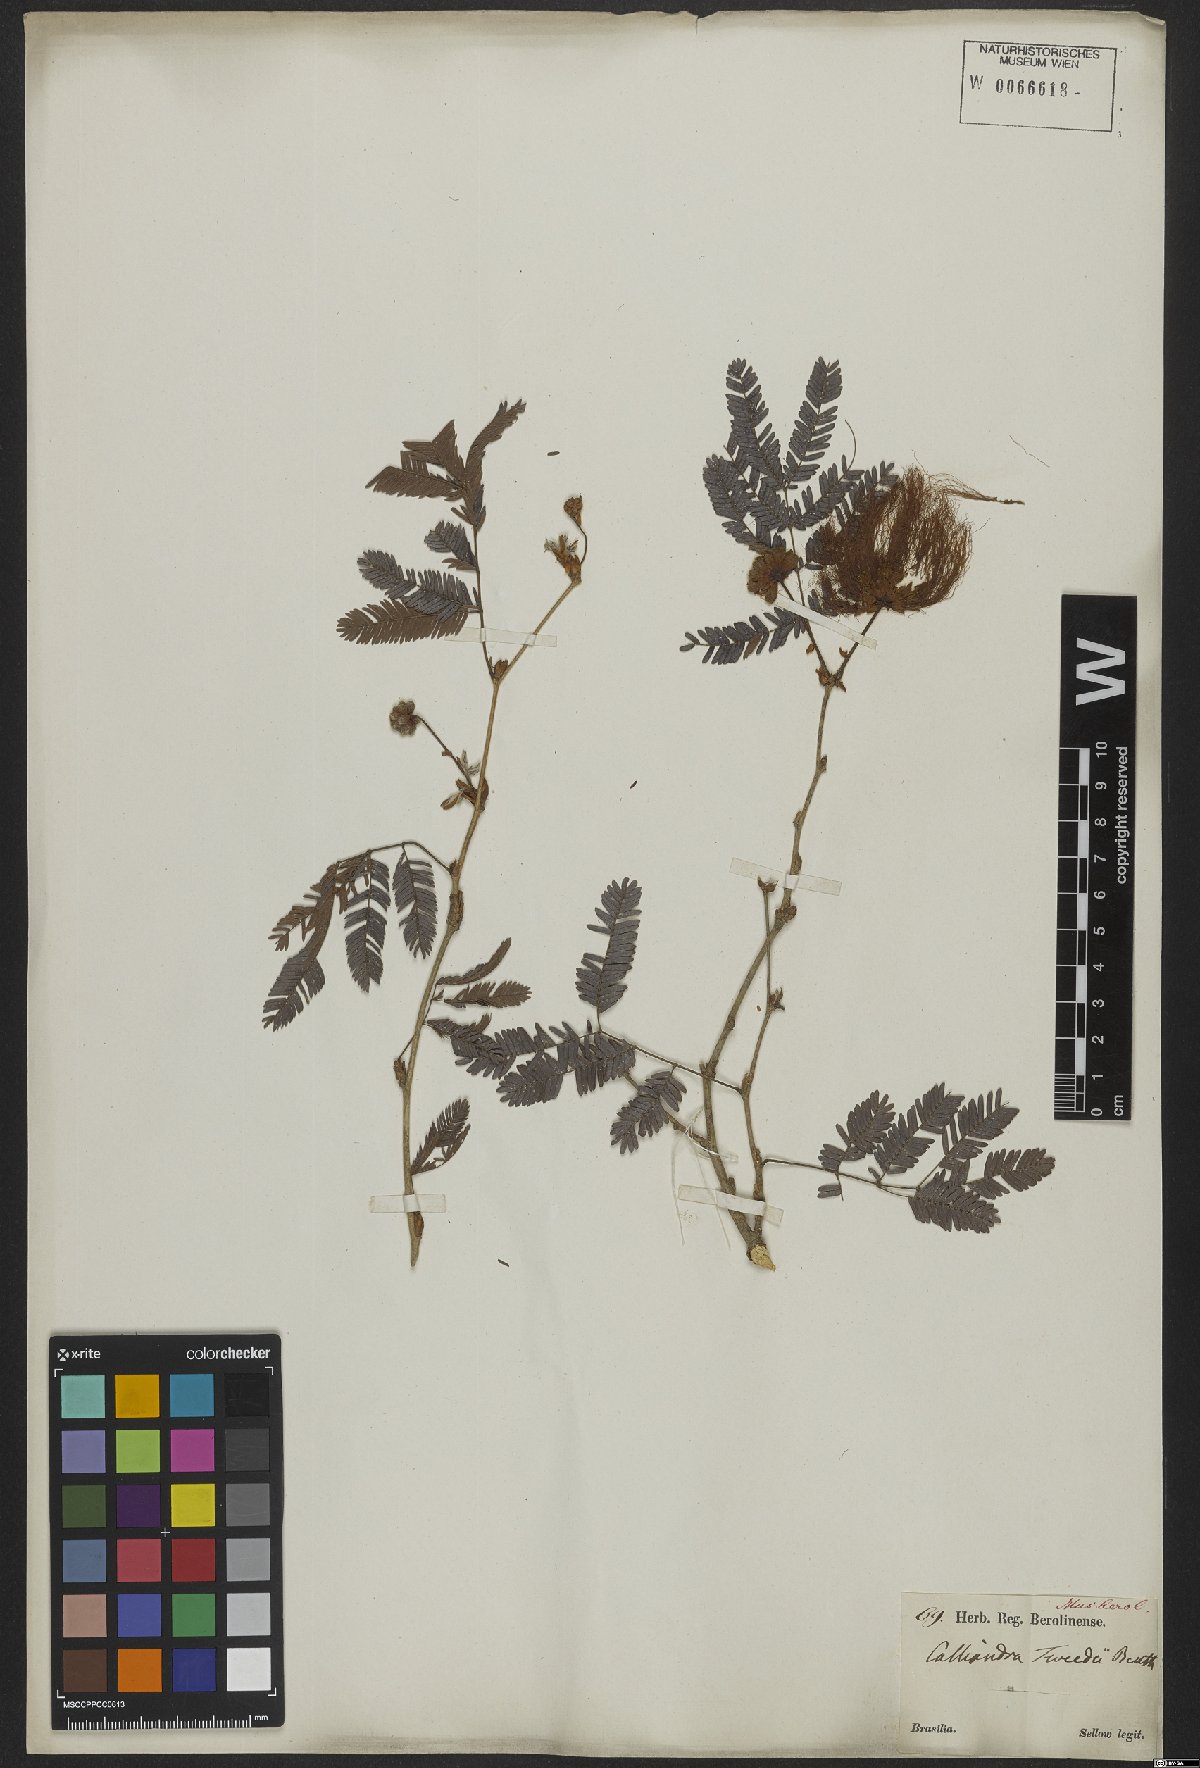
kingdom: Plantae
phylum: Tracheophyta
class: Magnoliopsida
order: Fabales
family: Fabaceae
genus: Calliandra
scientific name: Calliandra tweedii
